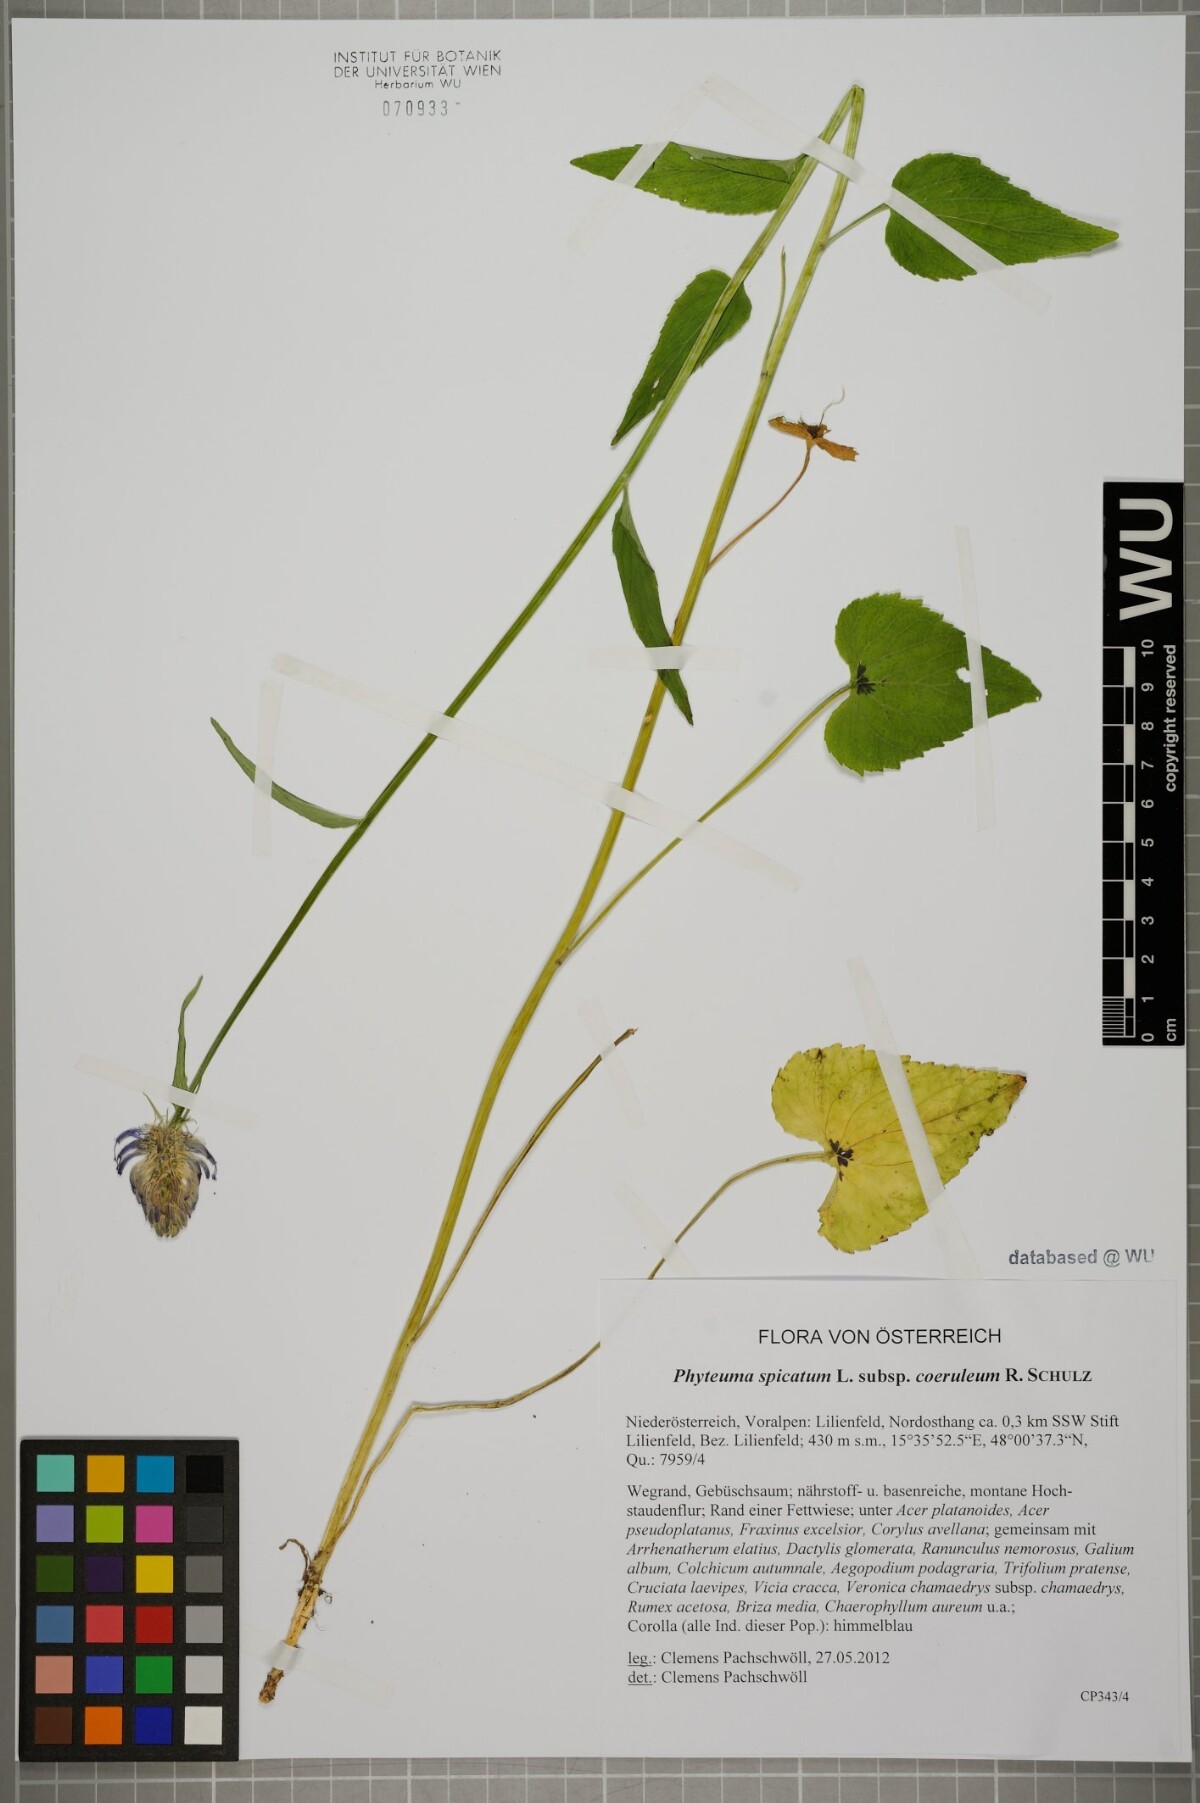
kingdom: Plantae
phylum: Tracheophyta
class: Magnoliopsida
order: Asterales
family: Campanulaceae
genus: Phyteuma
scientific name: Phyteuma spicatum
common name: Spiked rampion
